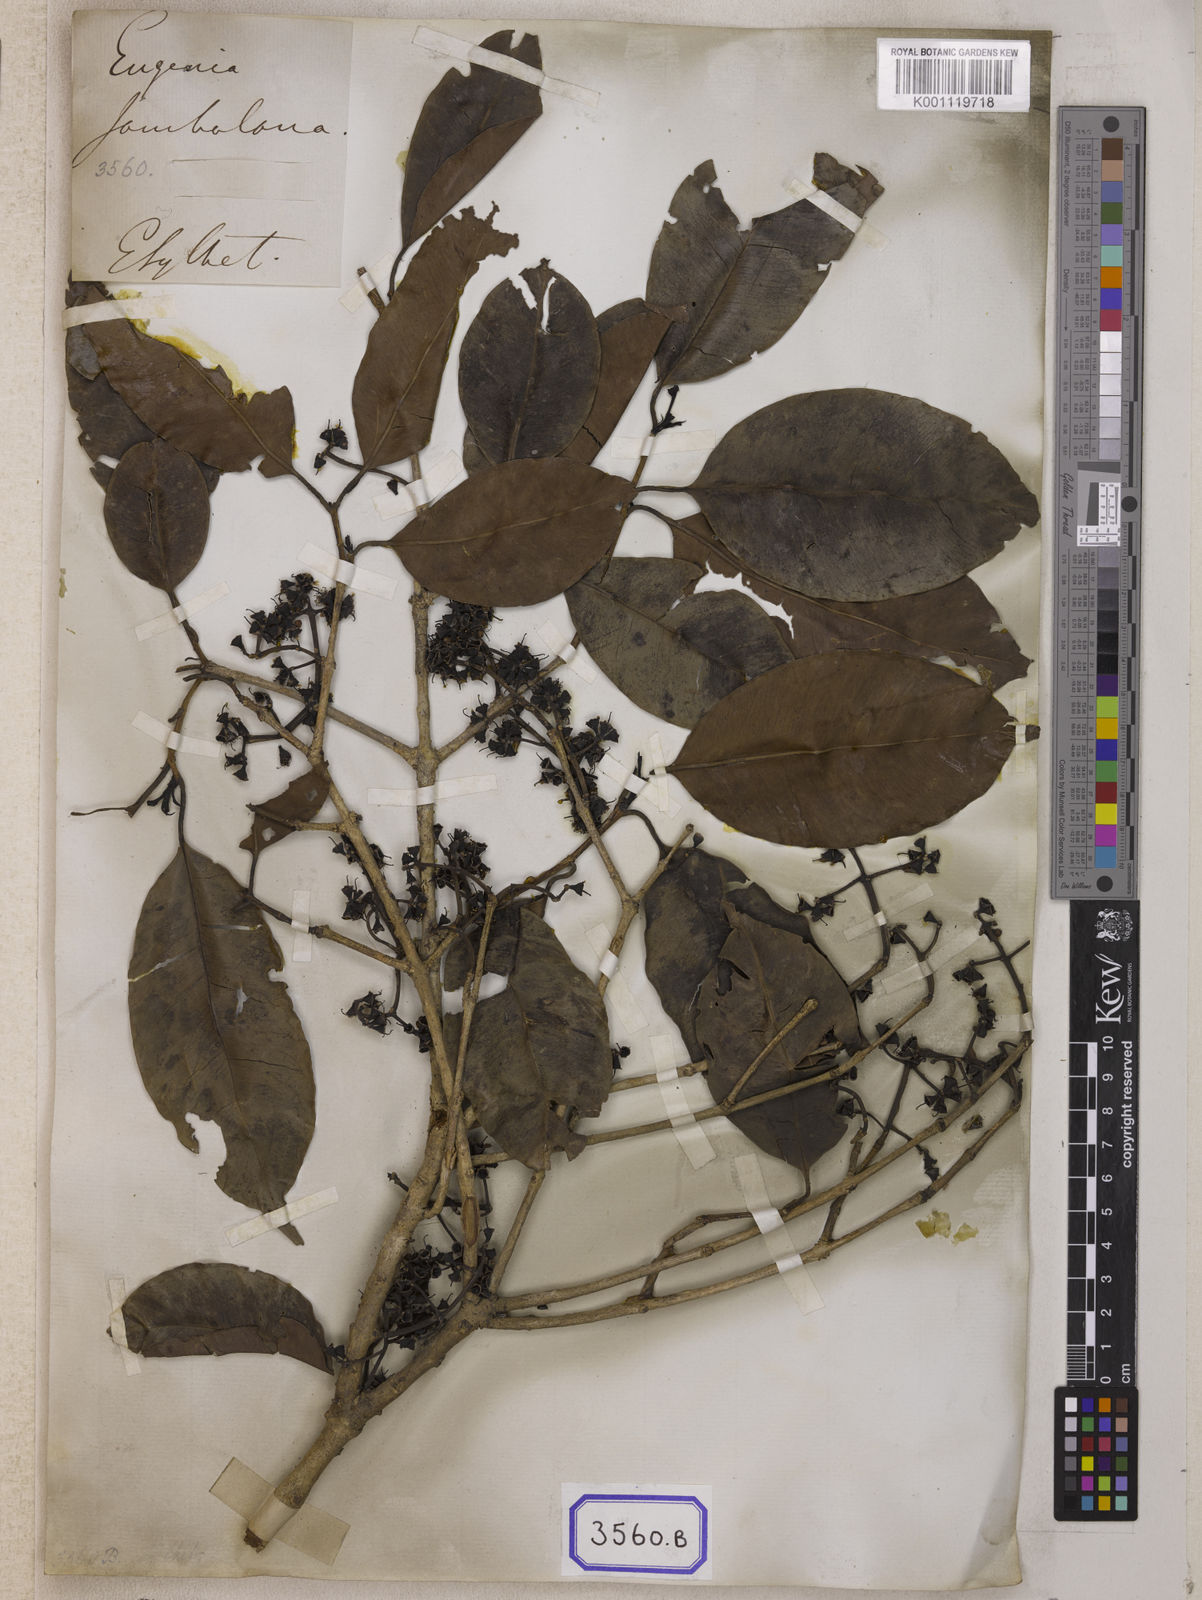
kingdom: Plantae
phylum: Tracheophyta
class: Magnoliopsida
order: Myrtales
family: Myrtaceae
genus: Syzygium
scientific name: Syzygium cumini
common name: Java plum
